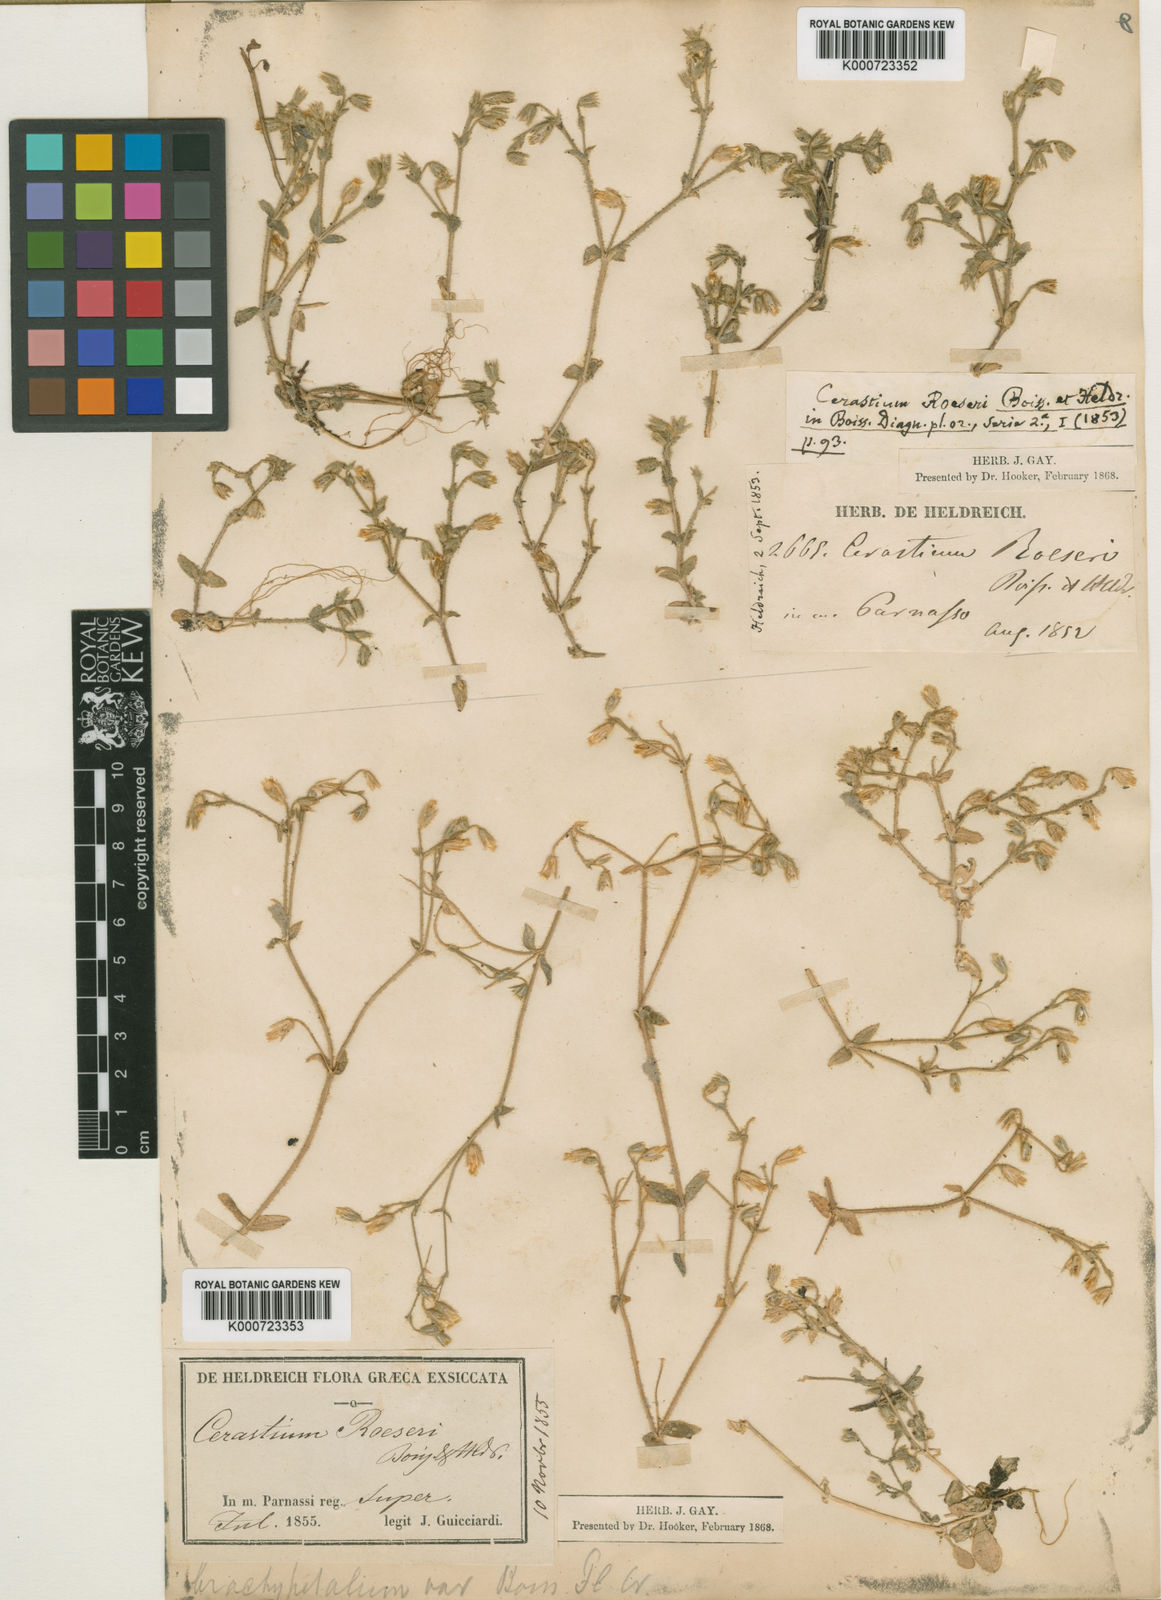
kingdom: Plantae
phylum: Tracheophyta
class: Magnoliopsida
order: Caryophyllales
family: Caryophyllaceae
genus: Cerastium
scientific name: Cerastium
